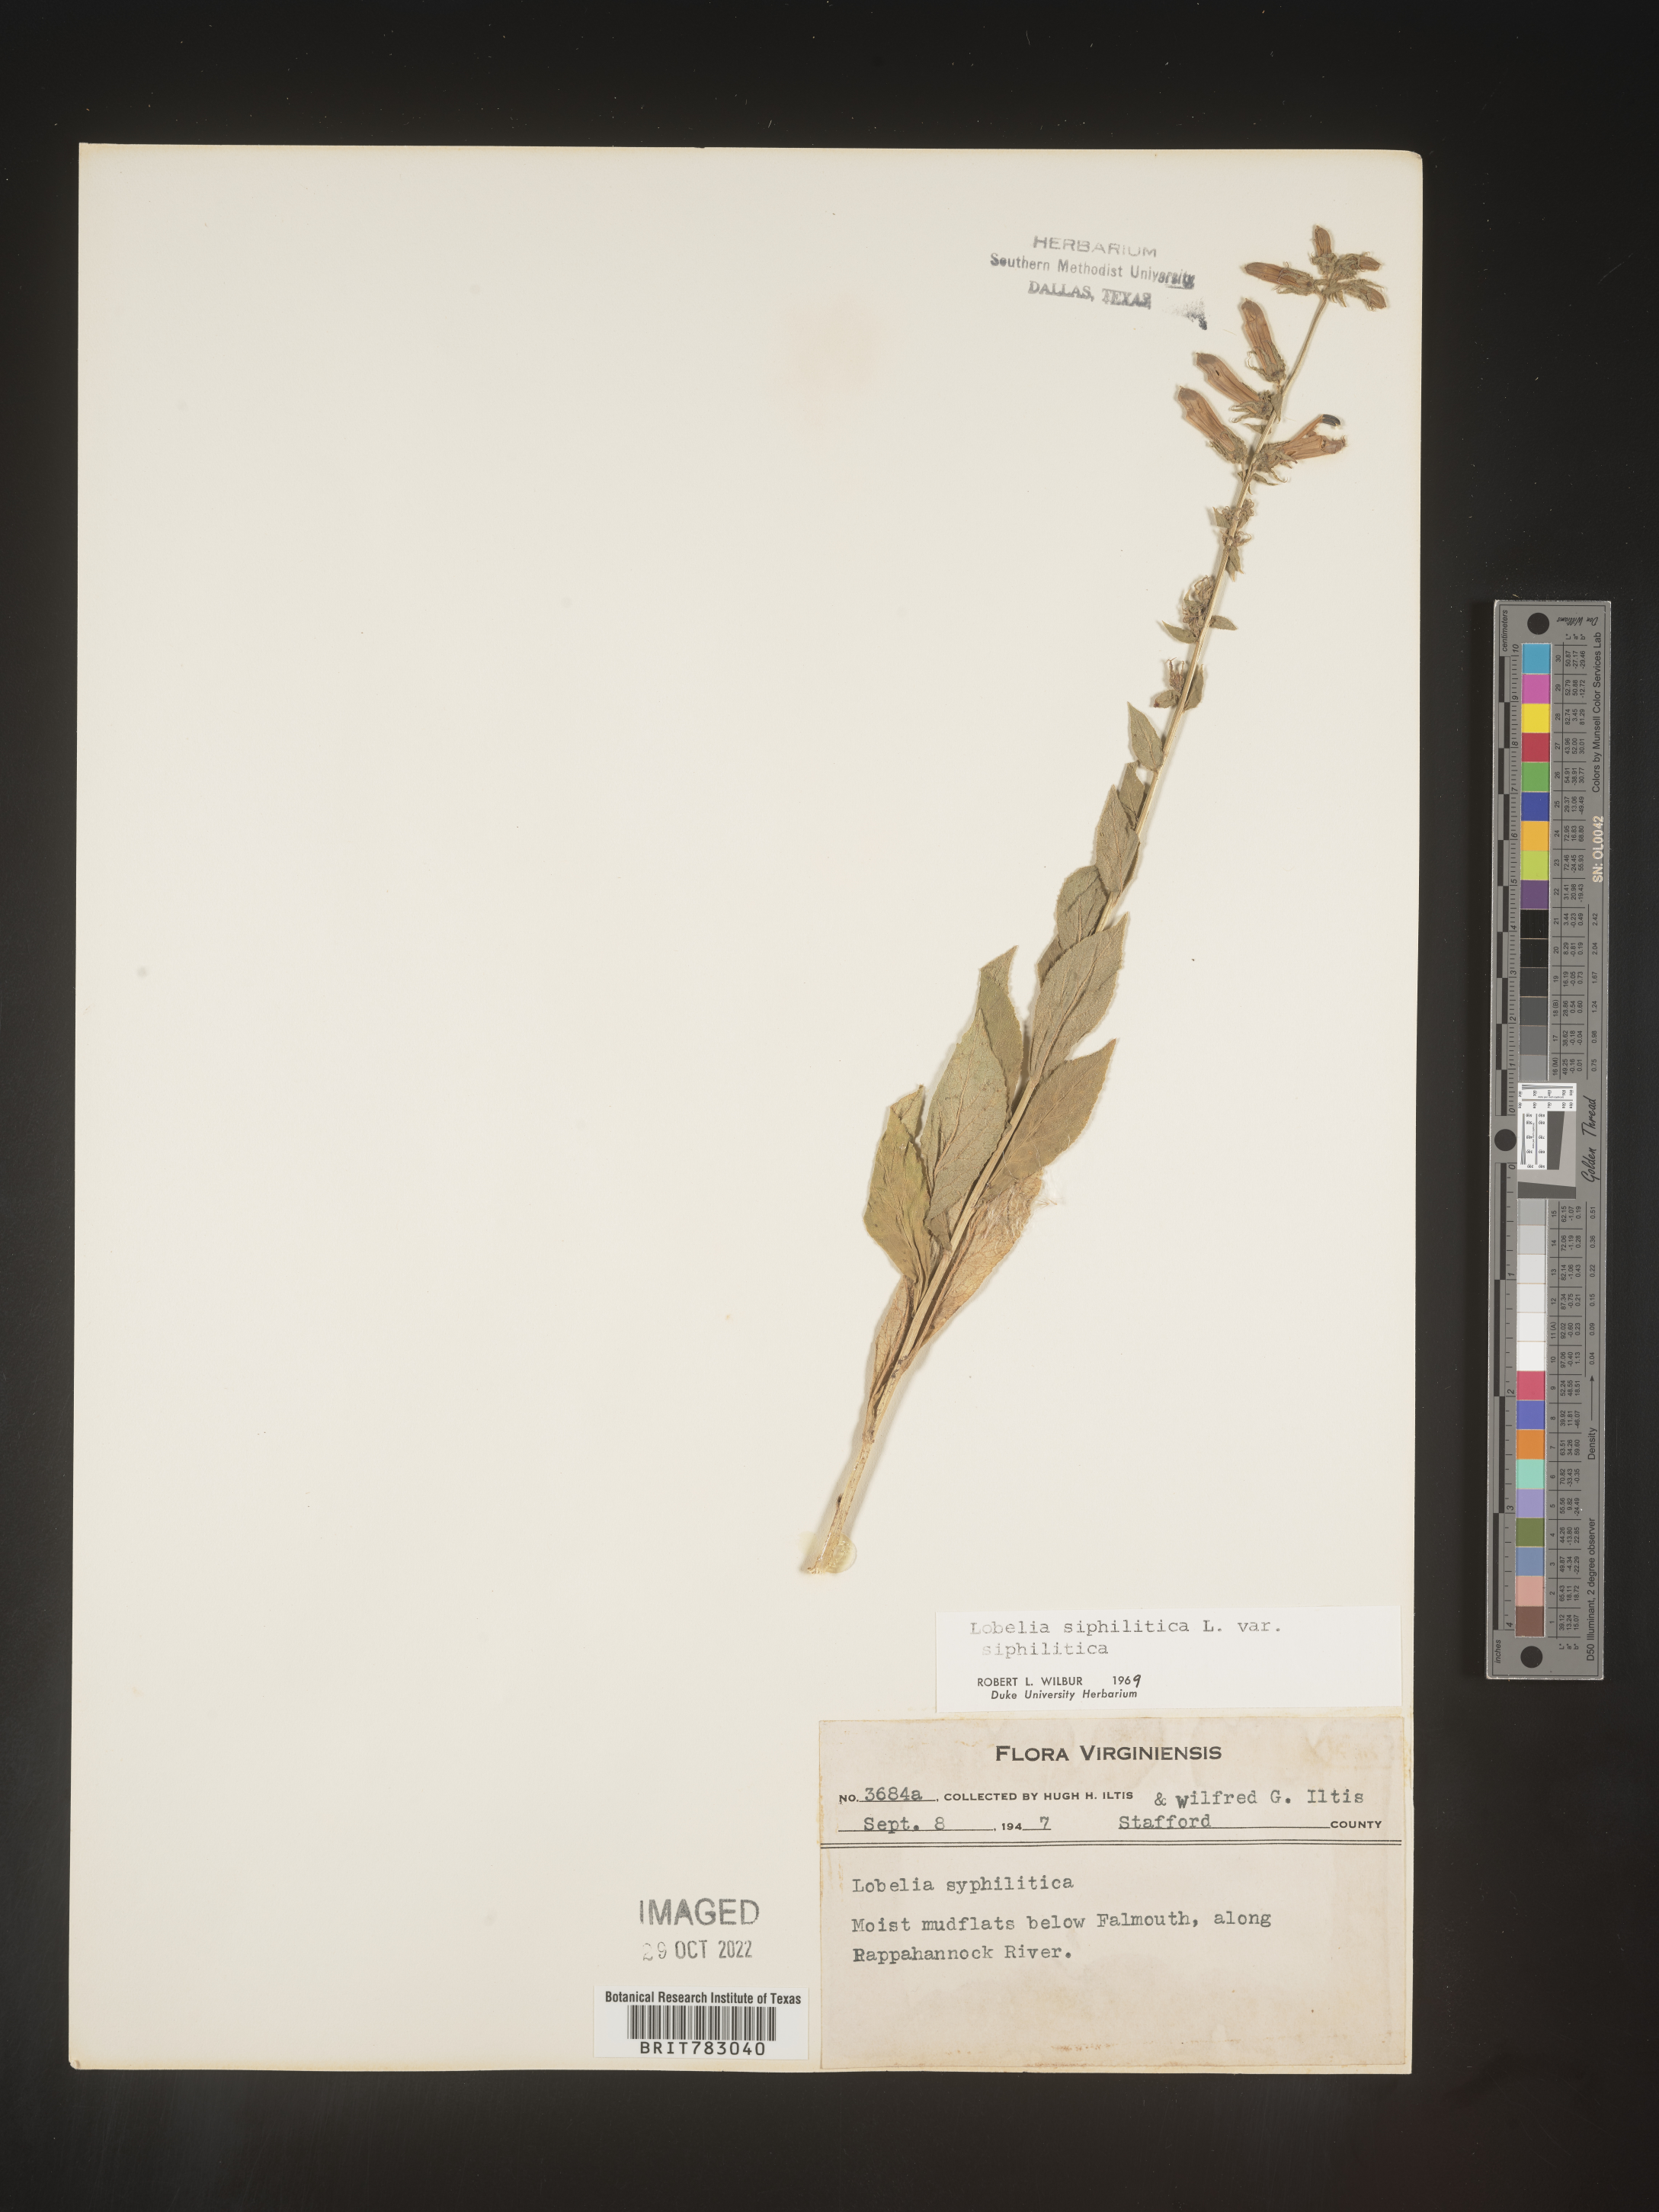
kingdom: Plantae
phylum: Tracheophyta
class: Magnoliopsida
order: Asterales
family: Campanulaceae
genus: Lobelia
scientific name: Lobelia siphilitica
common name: Great lobelia
